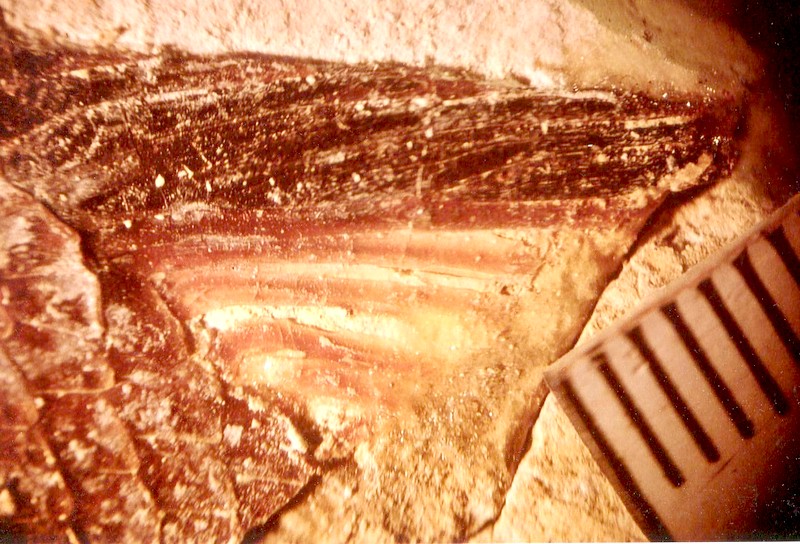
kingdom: Animalia
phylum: Chordata
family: Callipurbeckiidae
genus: Macrosemimimus
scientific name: Macrosemimimus fegerti
